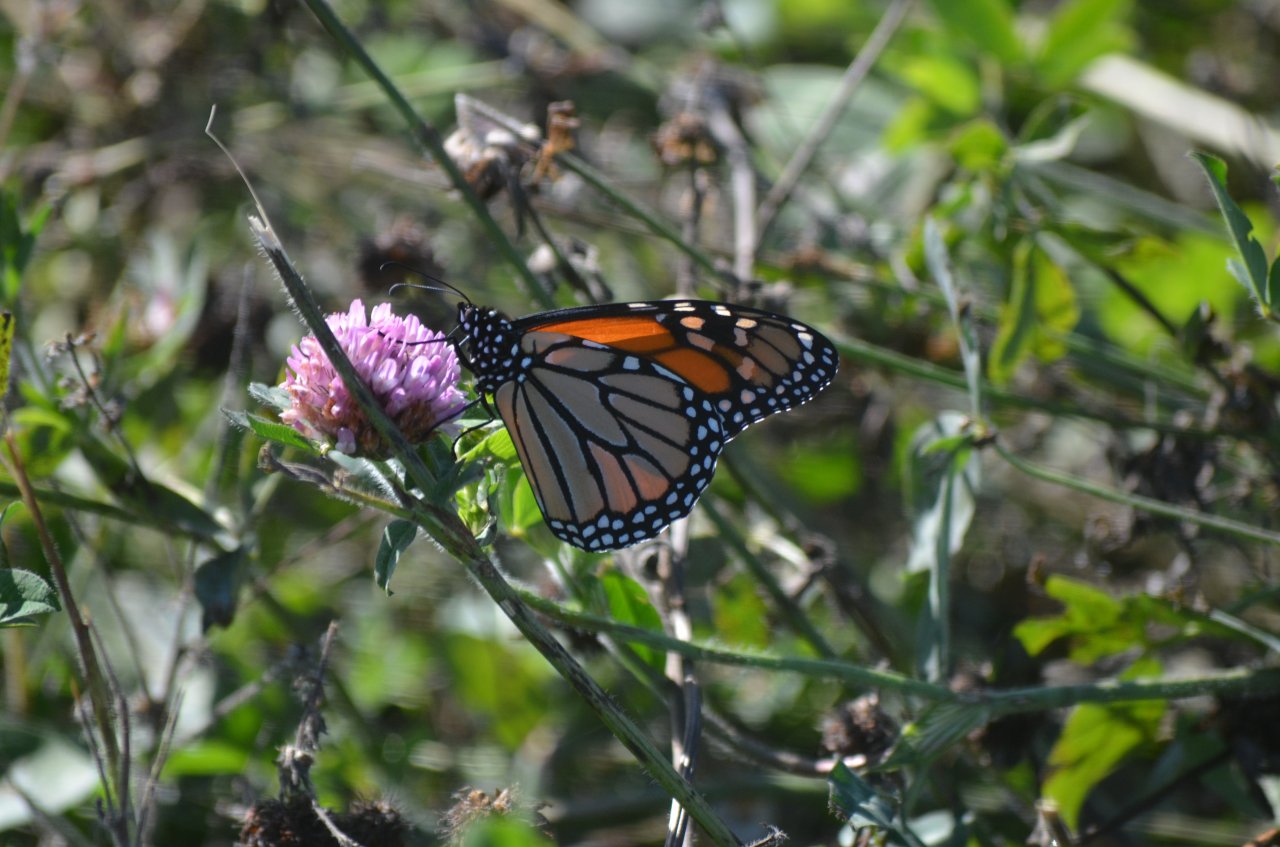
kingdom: Animalia
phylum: Arthropoda
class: Insecta
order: Lepidoptera
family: Nymphalidae
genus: Danaus
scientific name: Danaus plexippus
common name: Monarch
